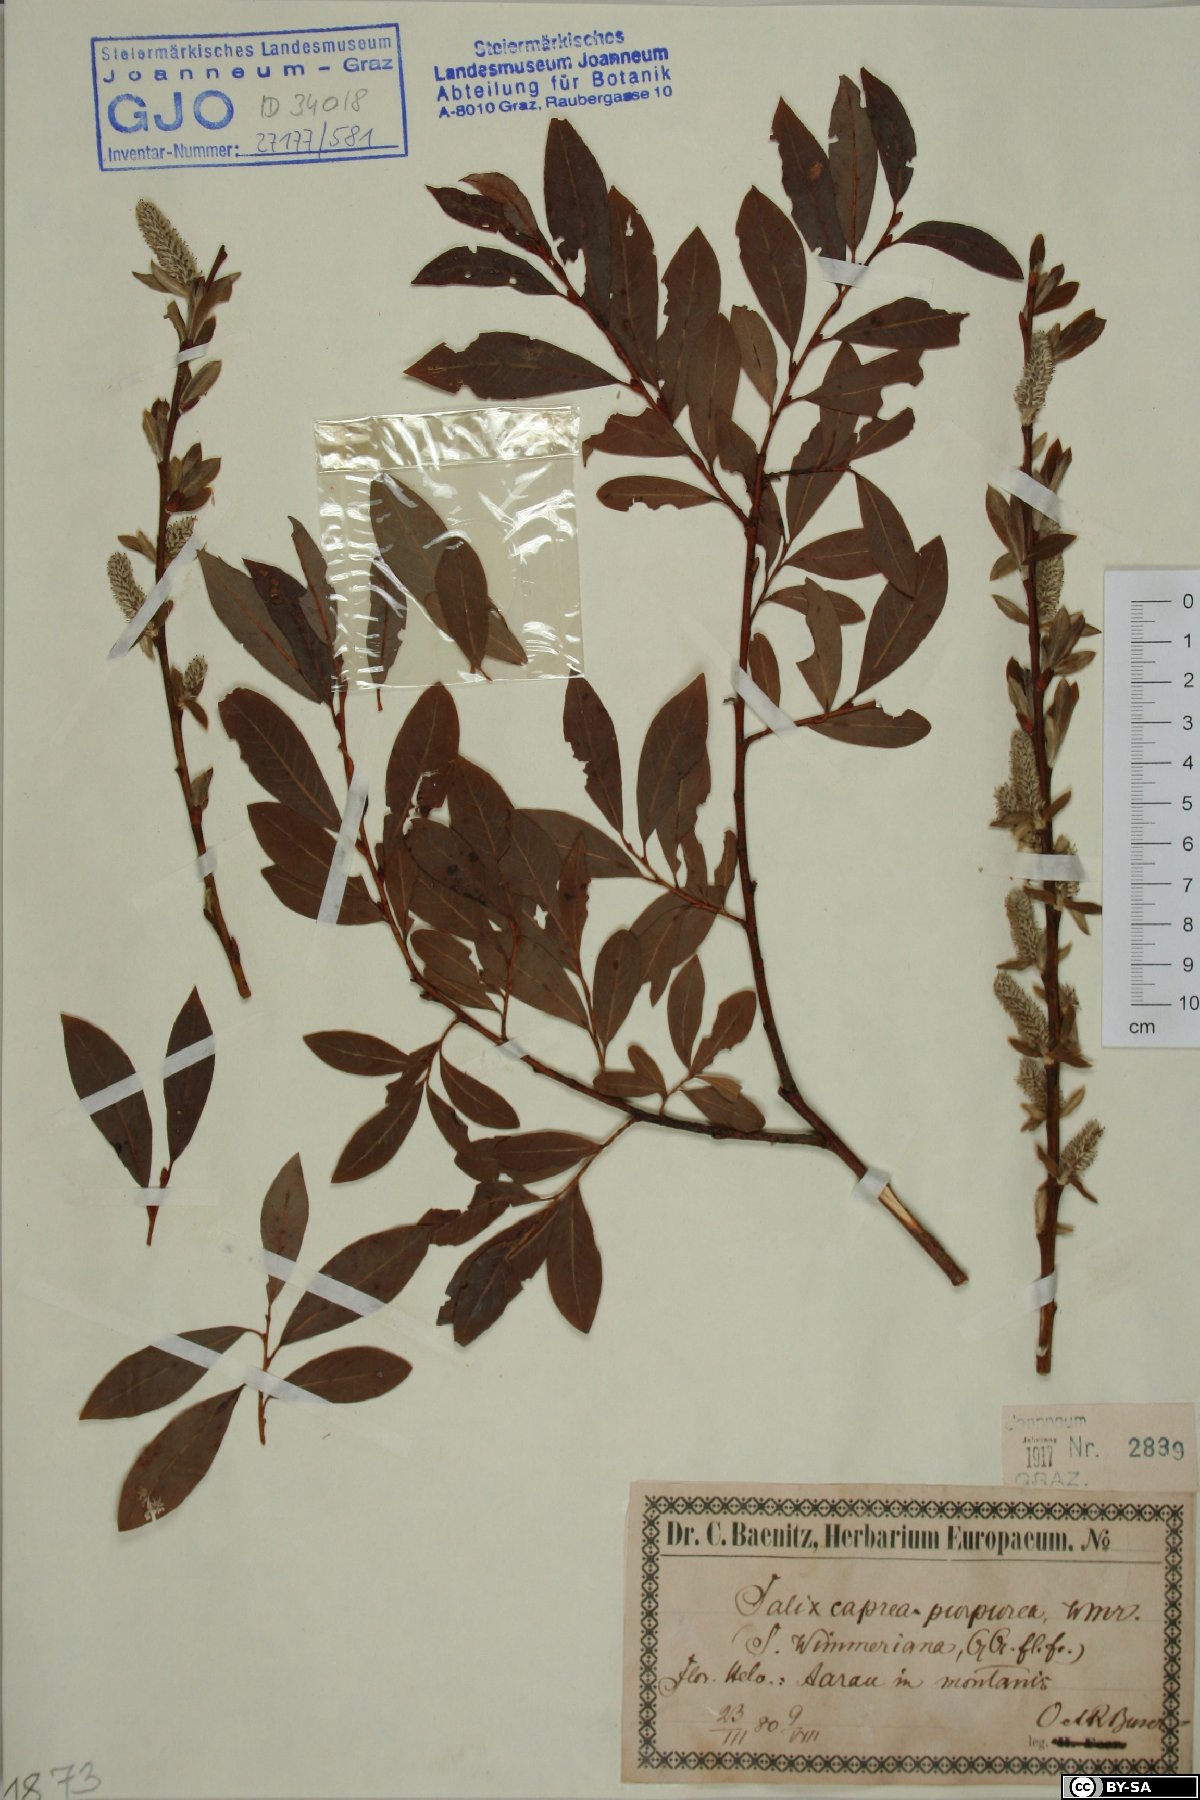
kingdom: Plantae
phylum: Tracheophyta
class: Magnoliopsida
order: Malpighiales
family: Salicaceae
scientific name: Salicaceae
